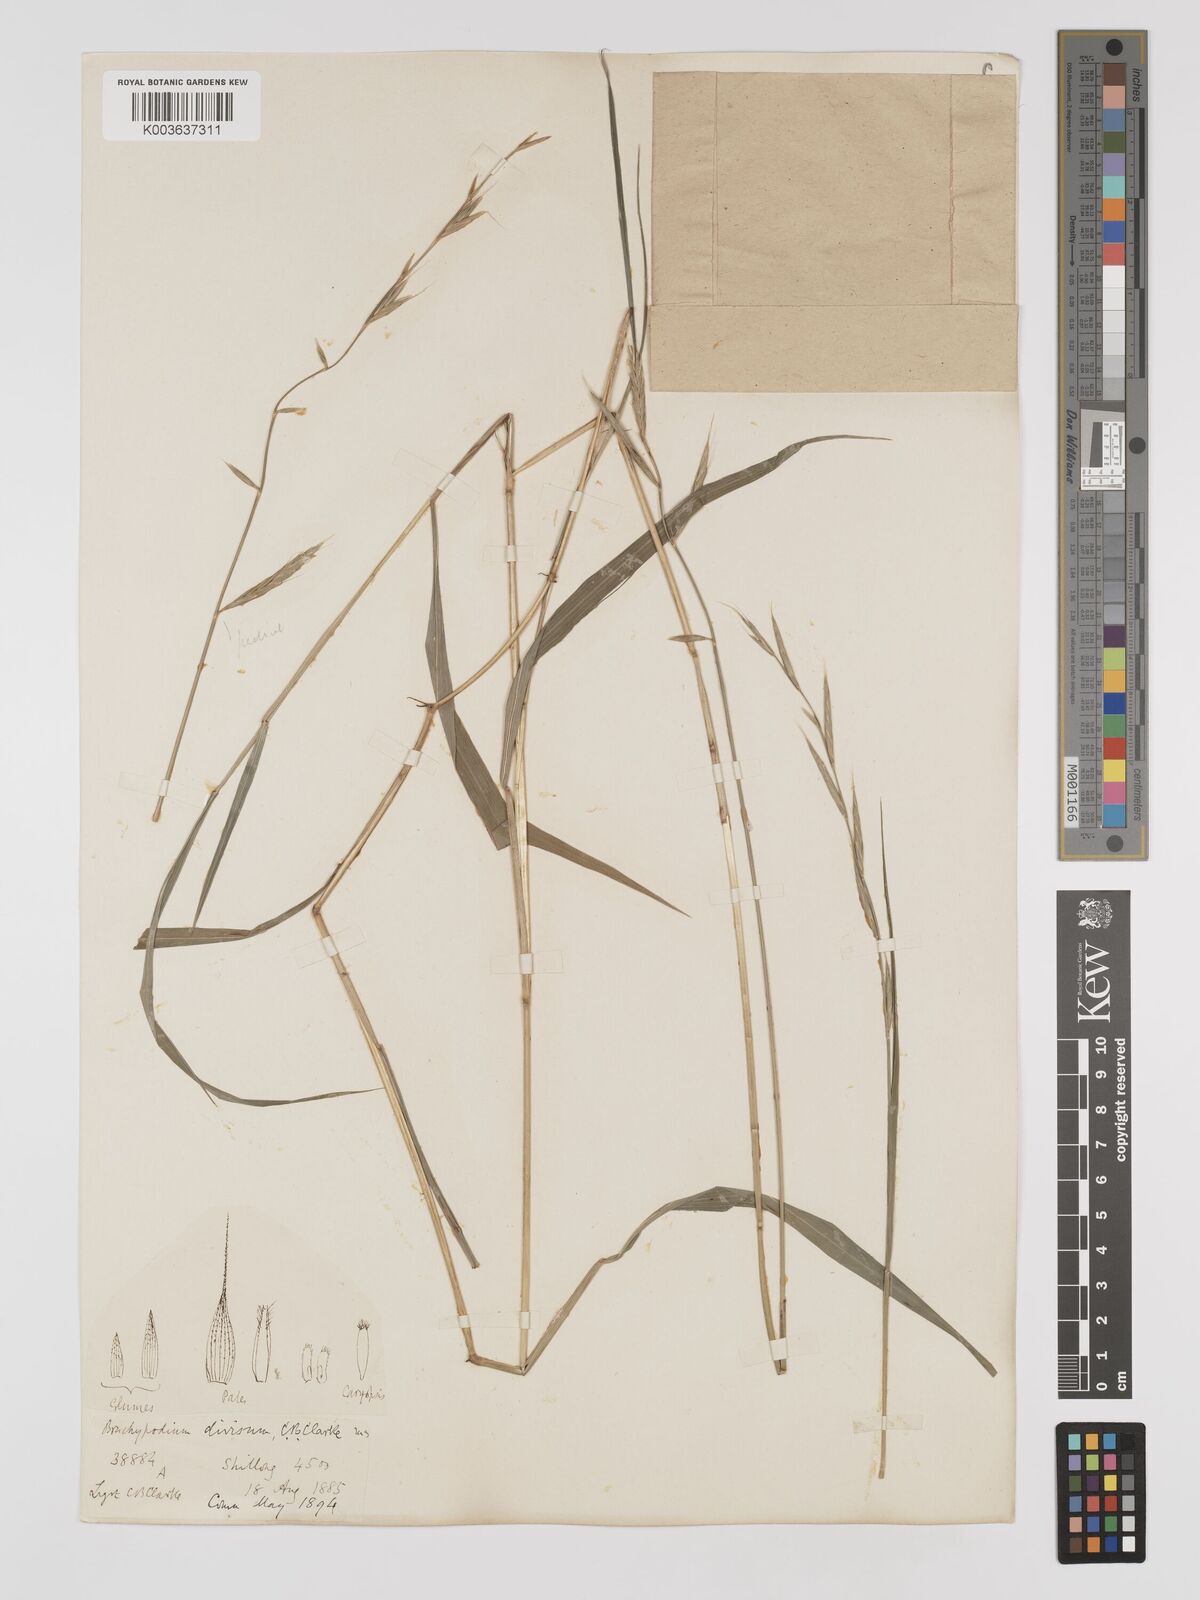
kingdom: Plantae
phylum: Tracheophyta
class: Liliopsida
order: Poales
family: Poaceae
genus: Brachypodium
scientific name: Brachypodium sylvaticum
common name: False-brome
